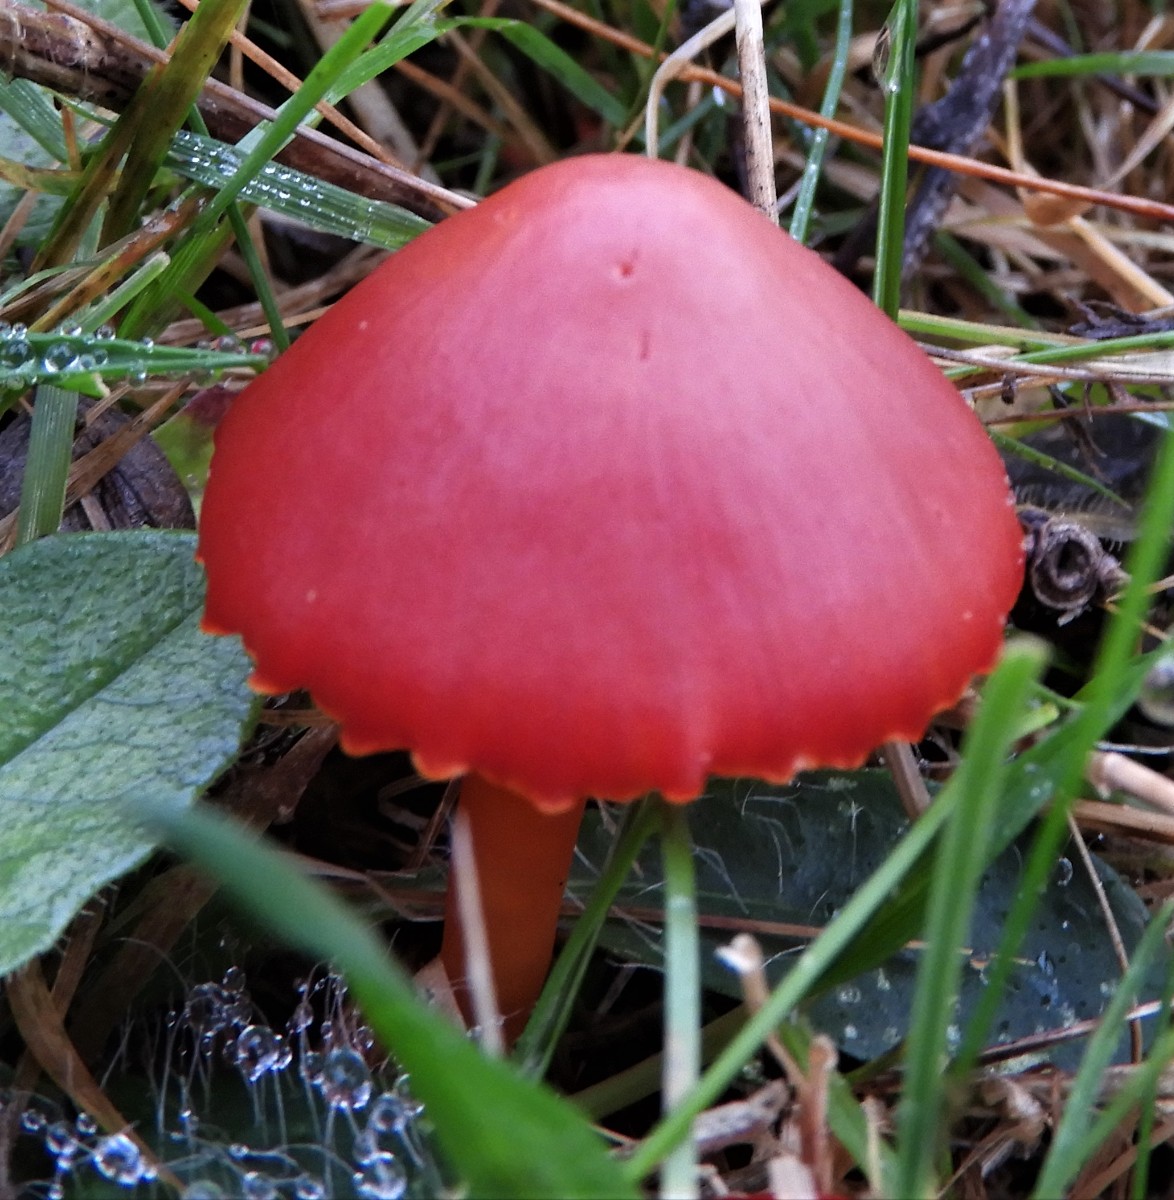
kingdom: Fungi
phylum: Basidiomycota
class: Agaricomycetes
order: Agaricales
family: Hygrophoraceae
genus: Hygrocybe
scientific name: Hygrocybe coccinea
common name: cinnober-vokshat
